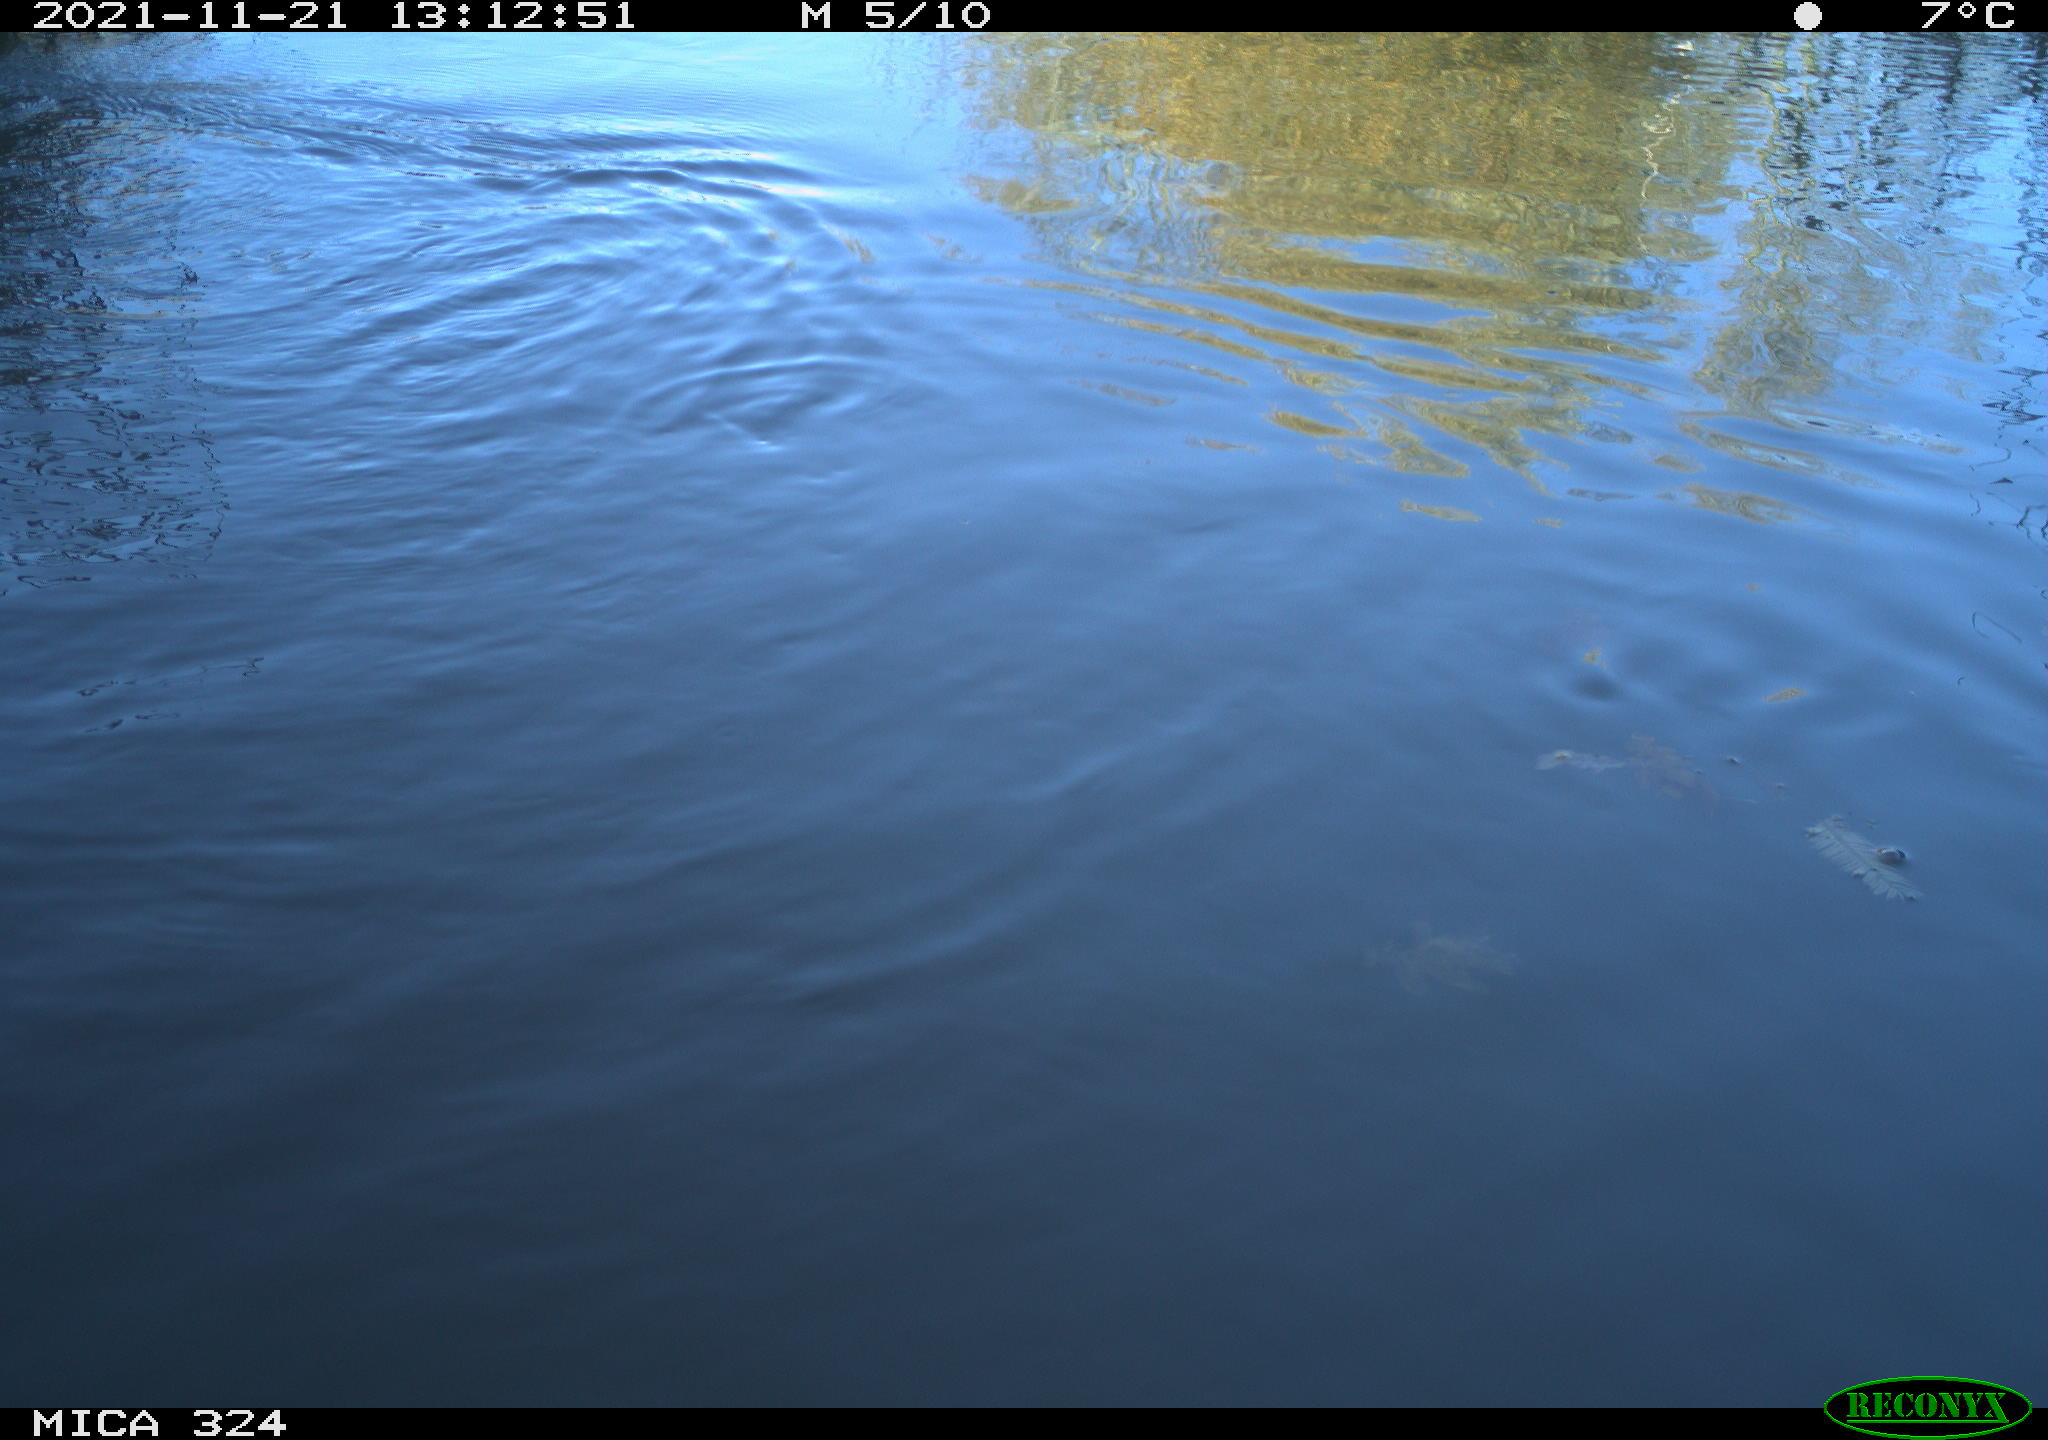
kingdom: Animalia
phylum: Chordata
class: Mammalia
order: Rodentia
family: Cricetidae
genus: Ondatra
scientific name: Ondatra zibethicus
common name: Muskrat
